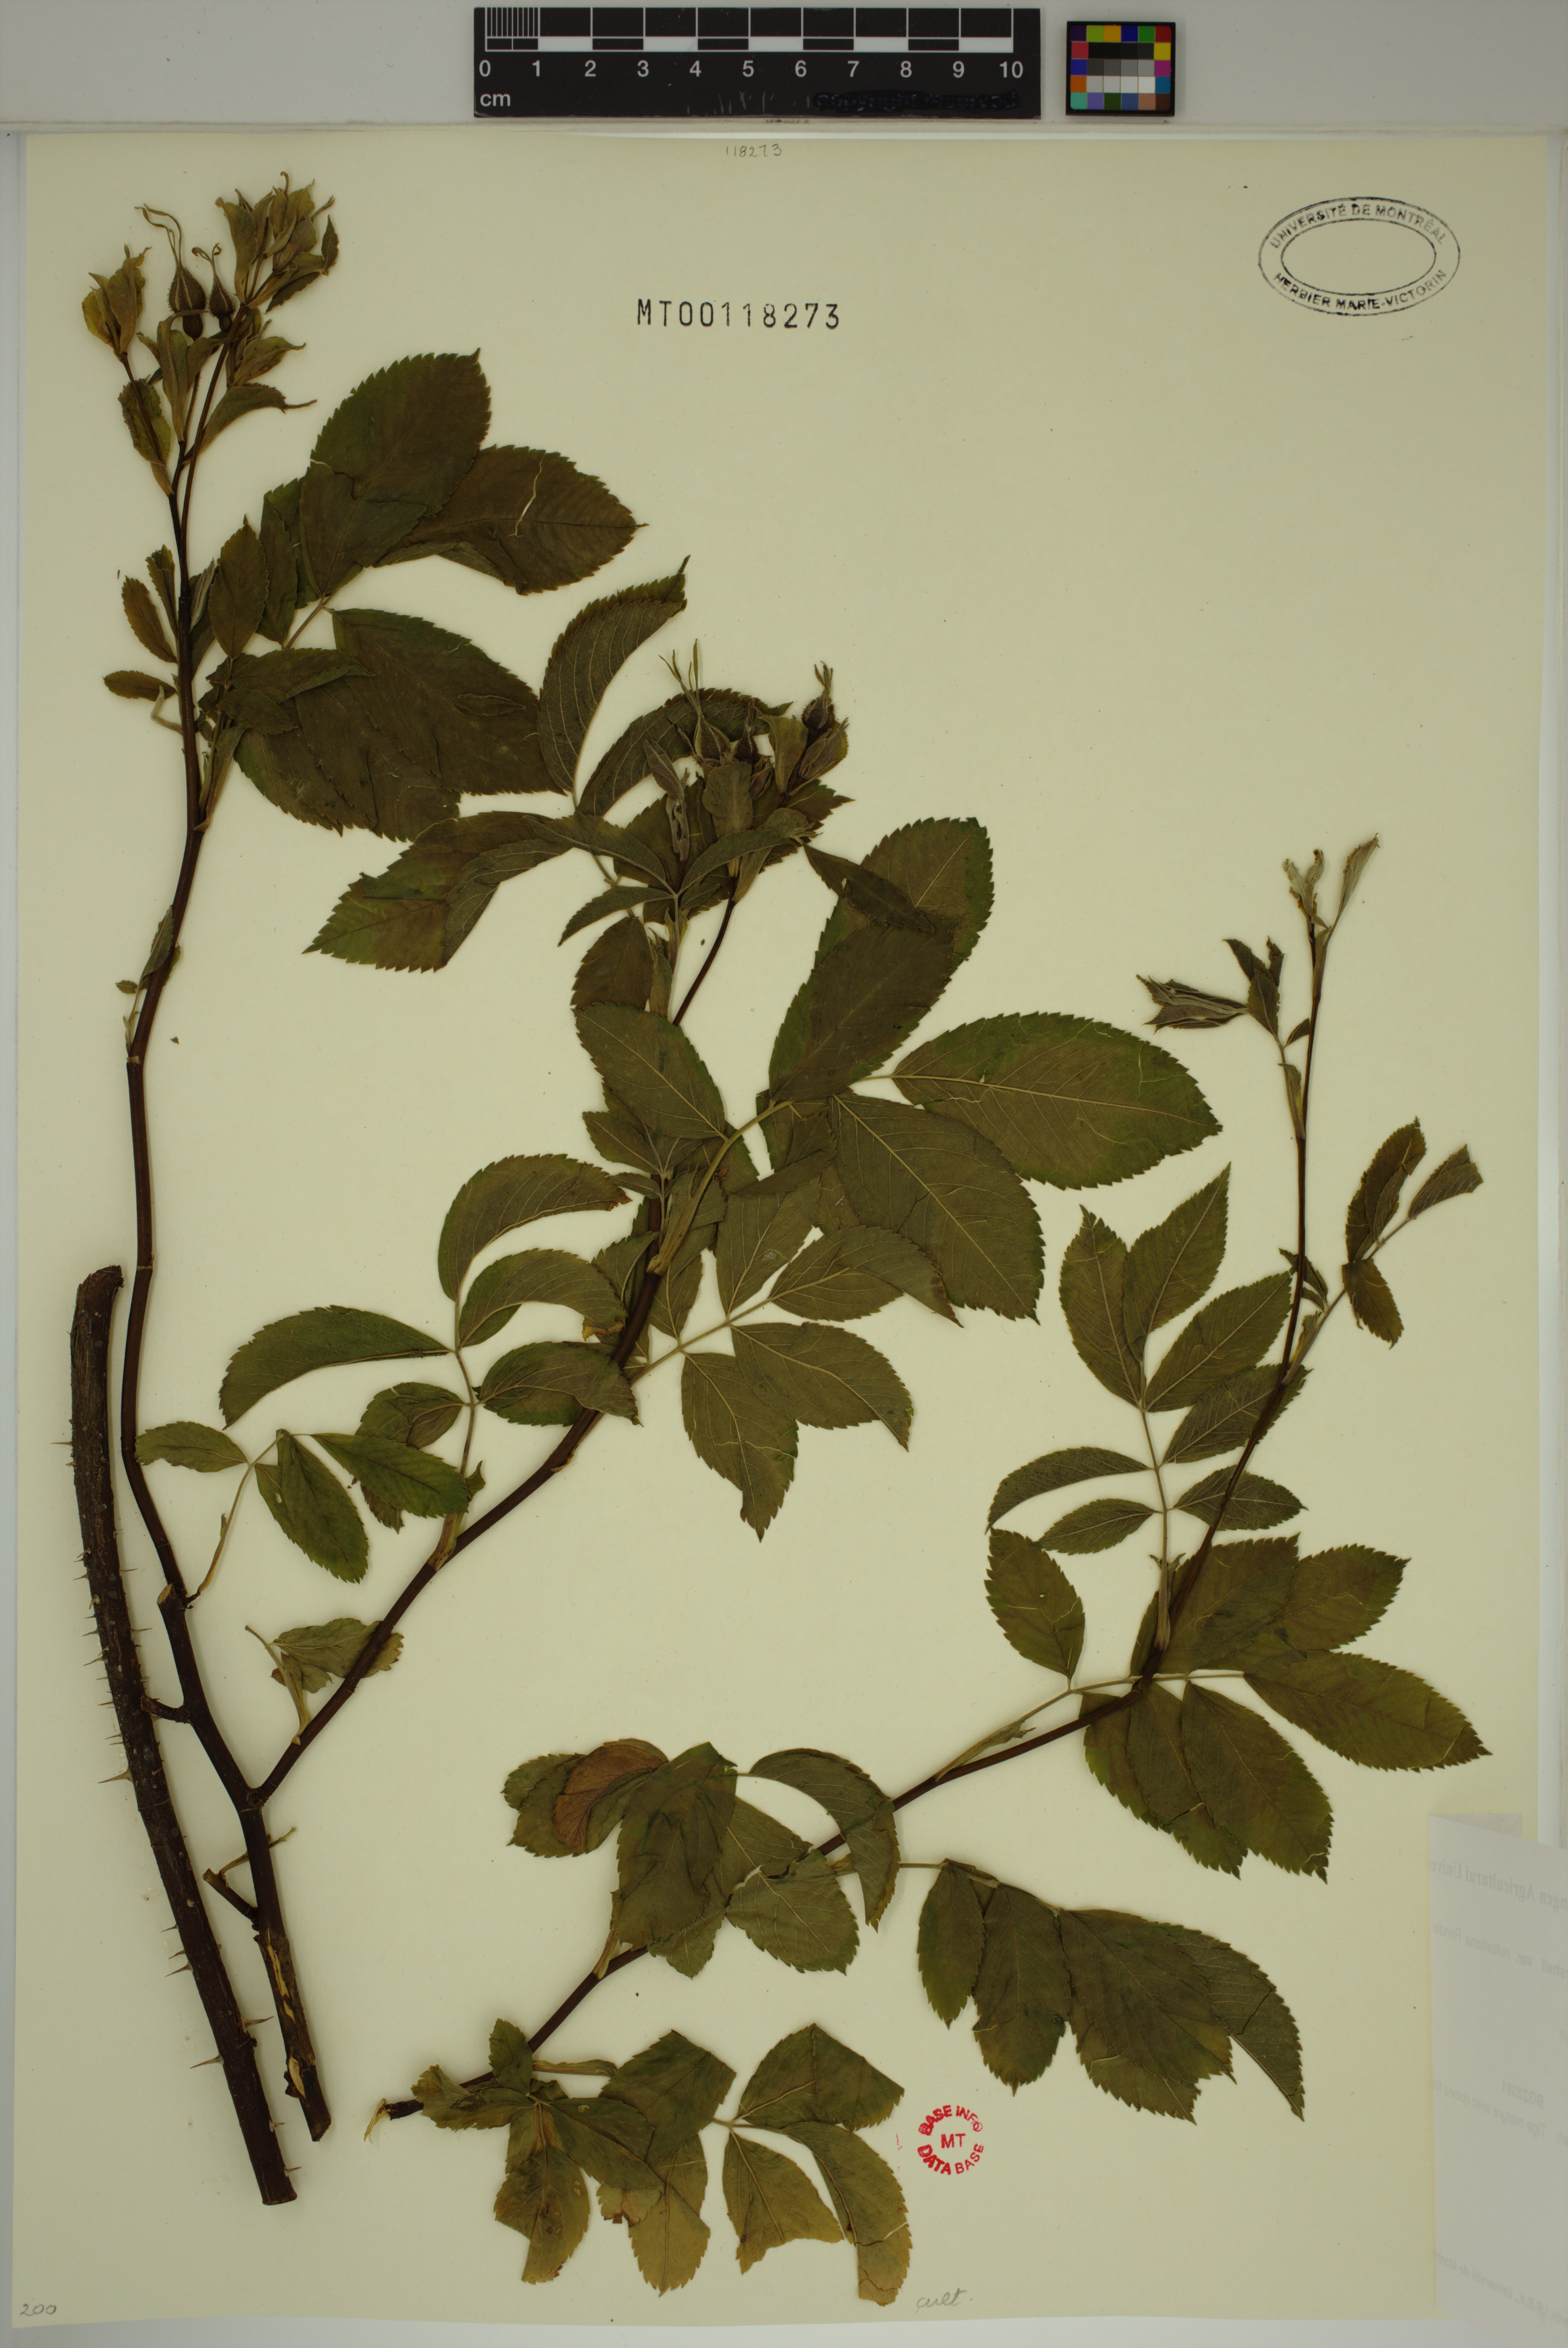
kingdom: Plantae
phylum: Tracheophyta
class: Magnoliopsida
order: Rosales
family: Rosaceae
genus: Rosa
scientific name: Rosa palustris
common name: Swamp rose
